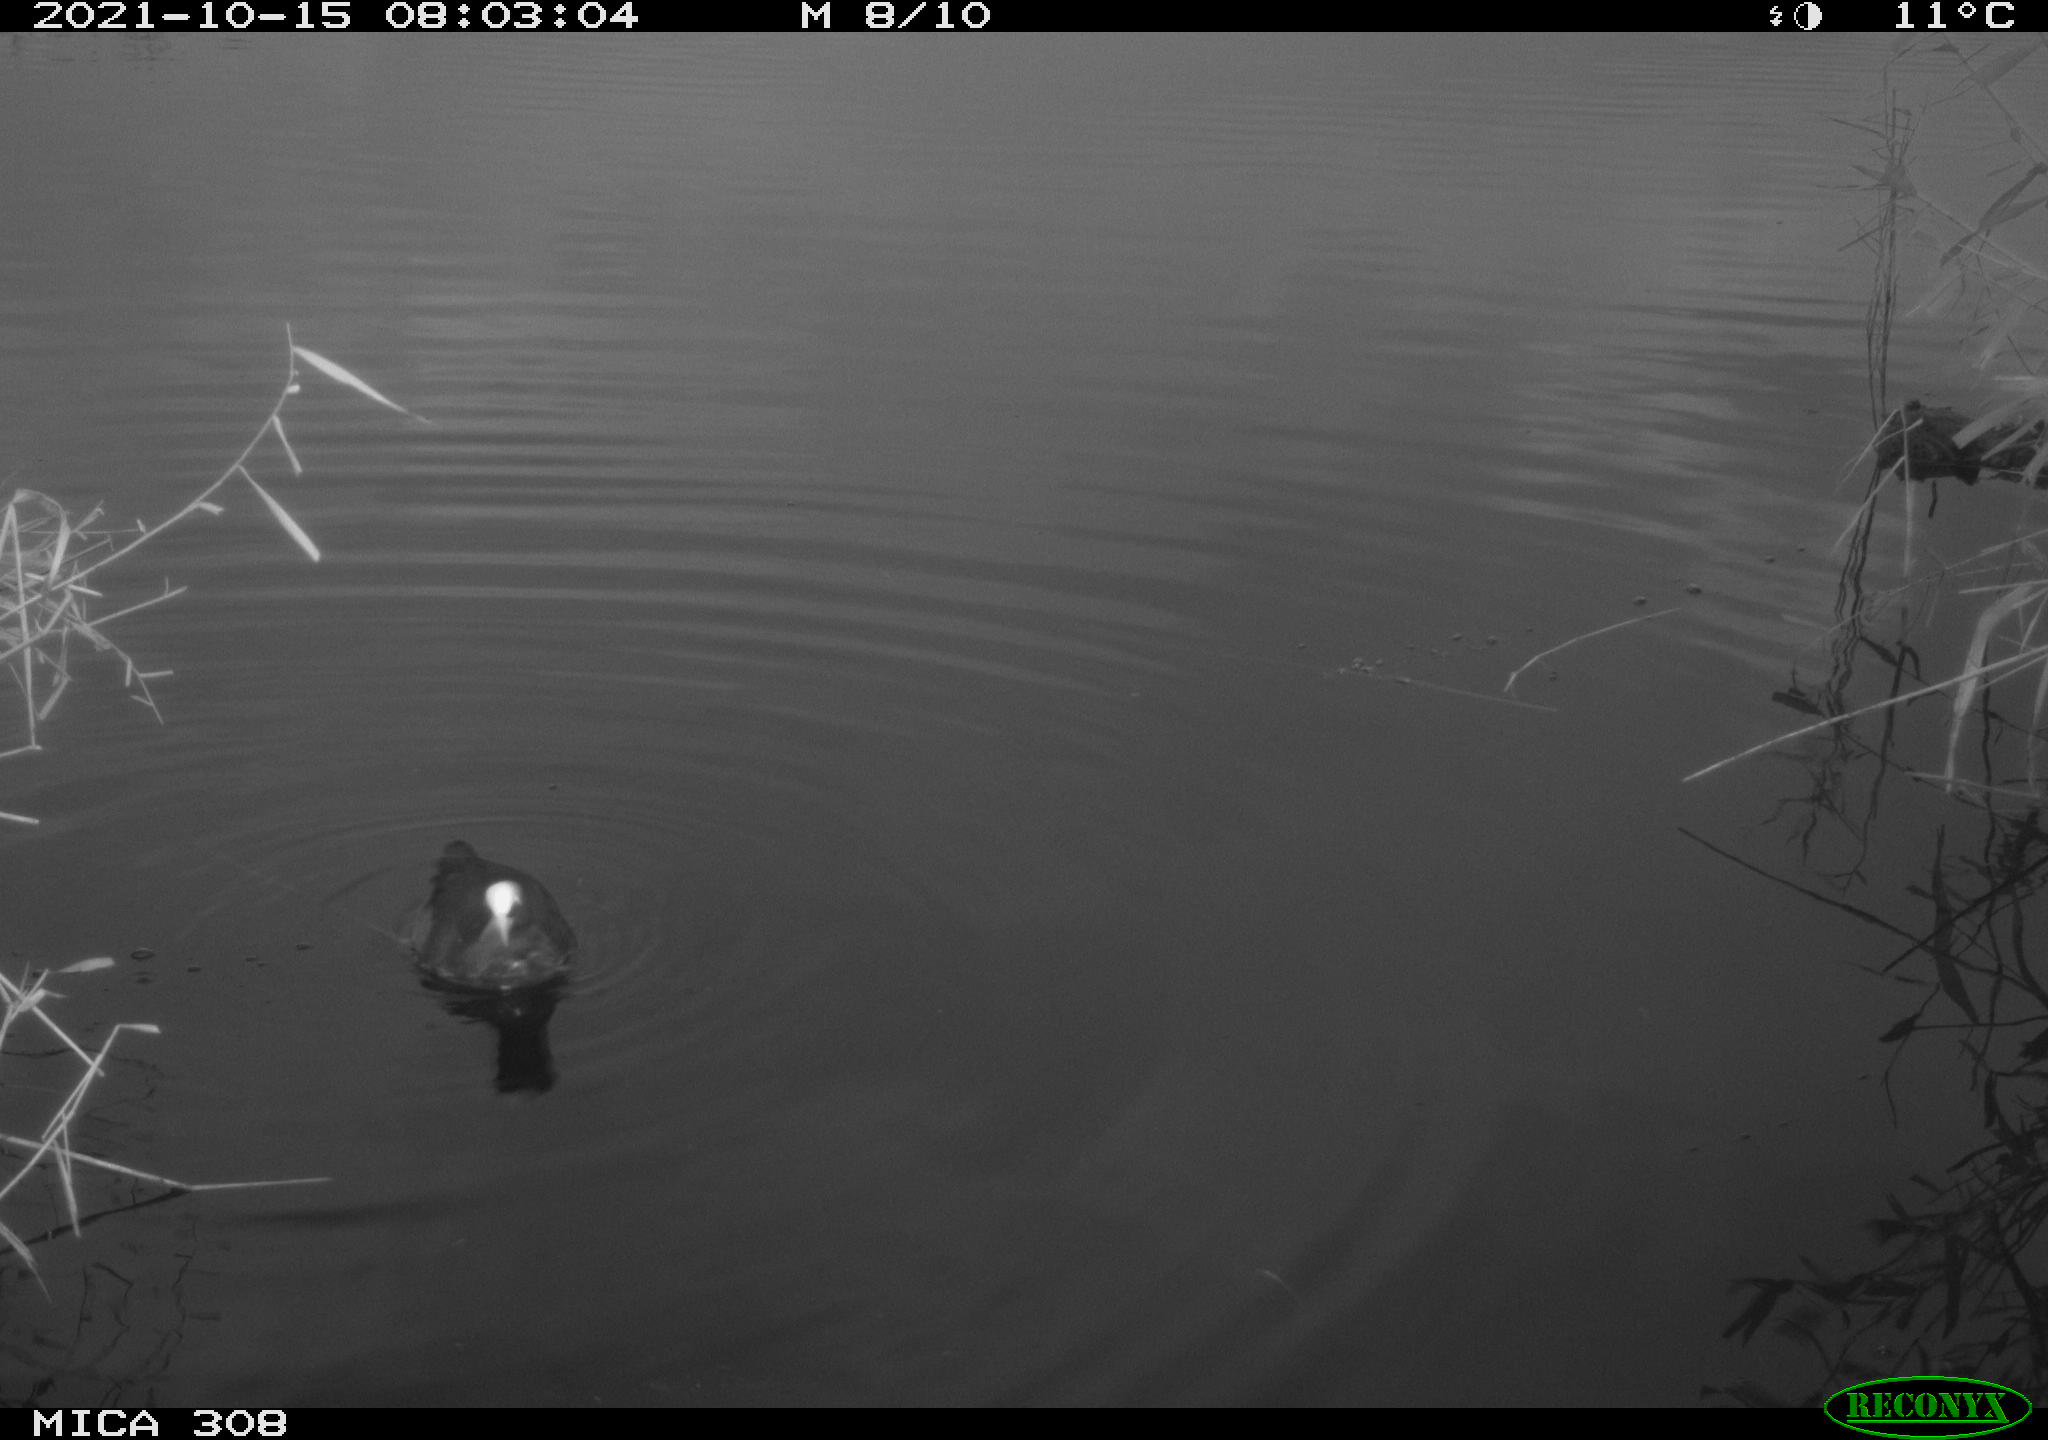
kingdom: Animalia
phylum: Chordata
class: Aves
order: Gruiformes
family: Rallidae
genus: Gallinula
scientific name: Gallinula chloropus
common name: Common moorhen
